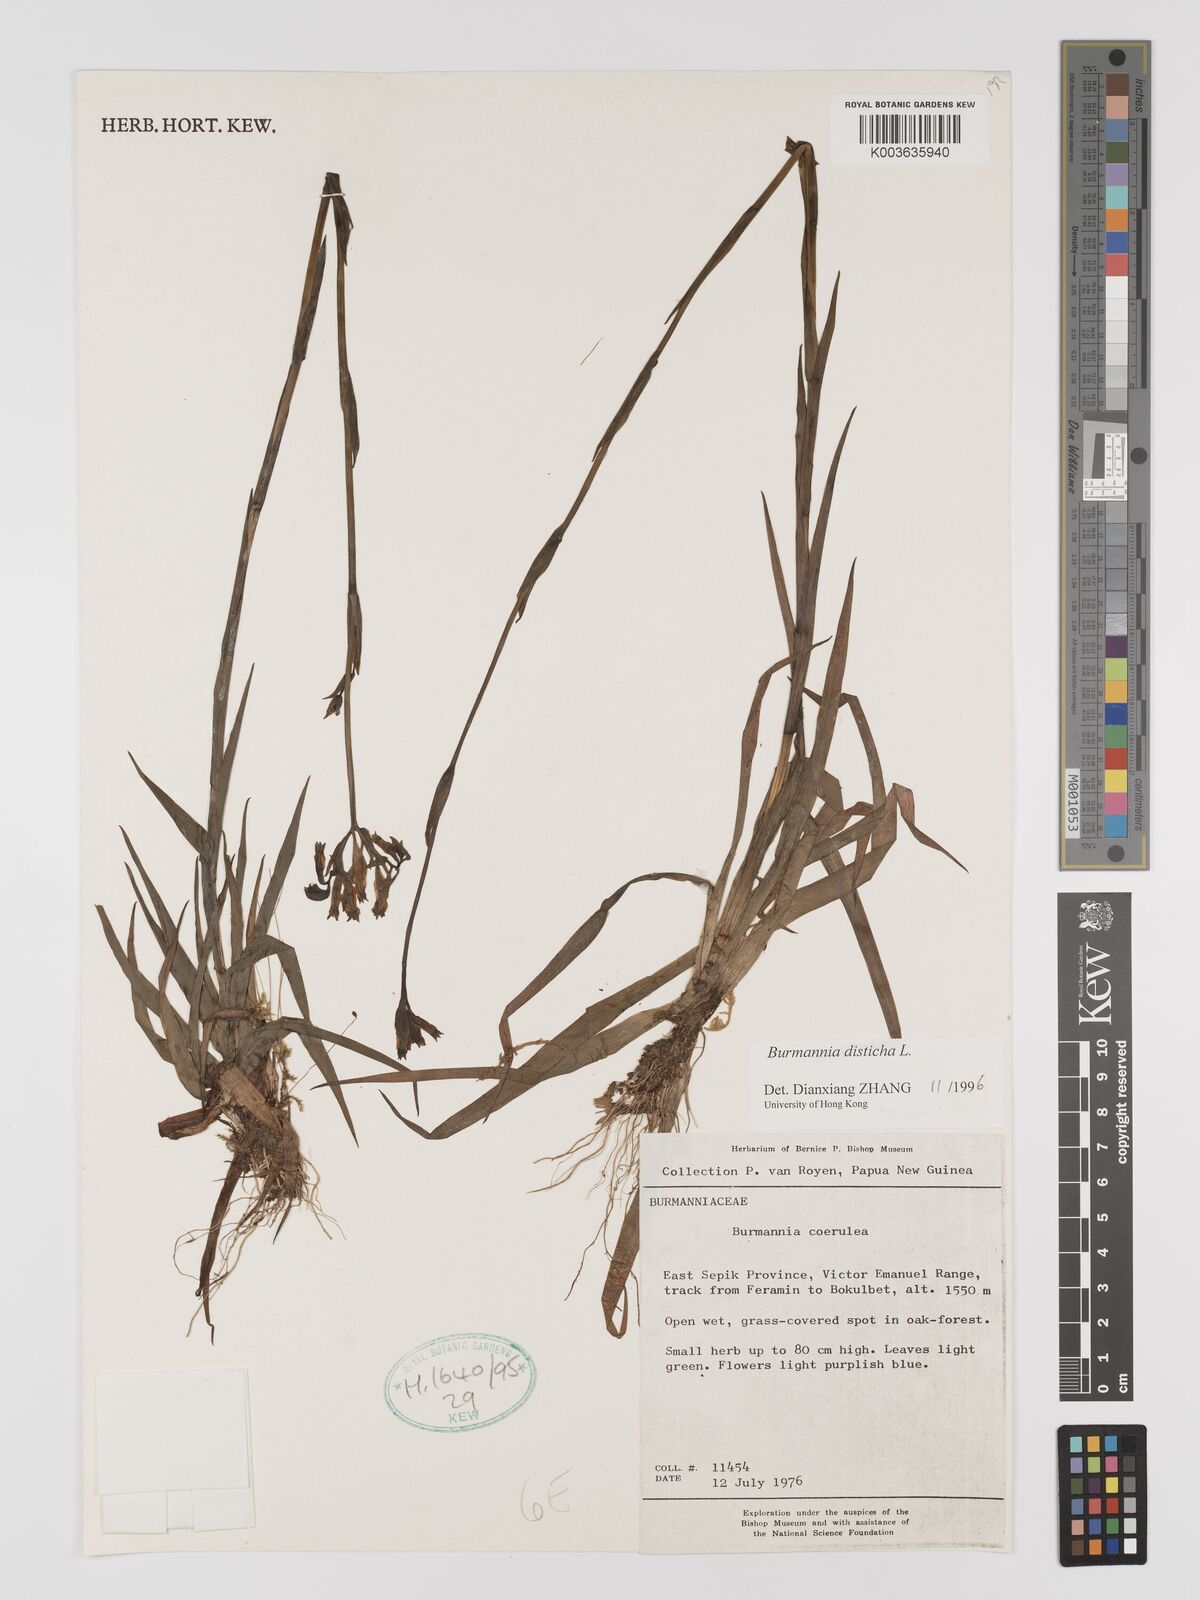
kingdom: Plantae
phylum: Tracheophyta
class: Liliopsida
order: Dioscoreales
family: Burmanniaceae
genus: Burmannia
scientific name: Burmannia disticha
